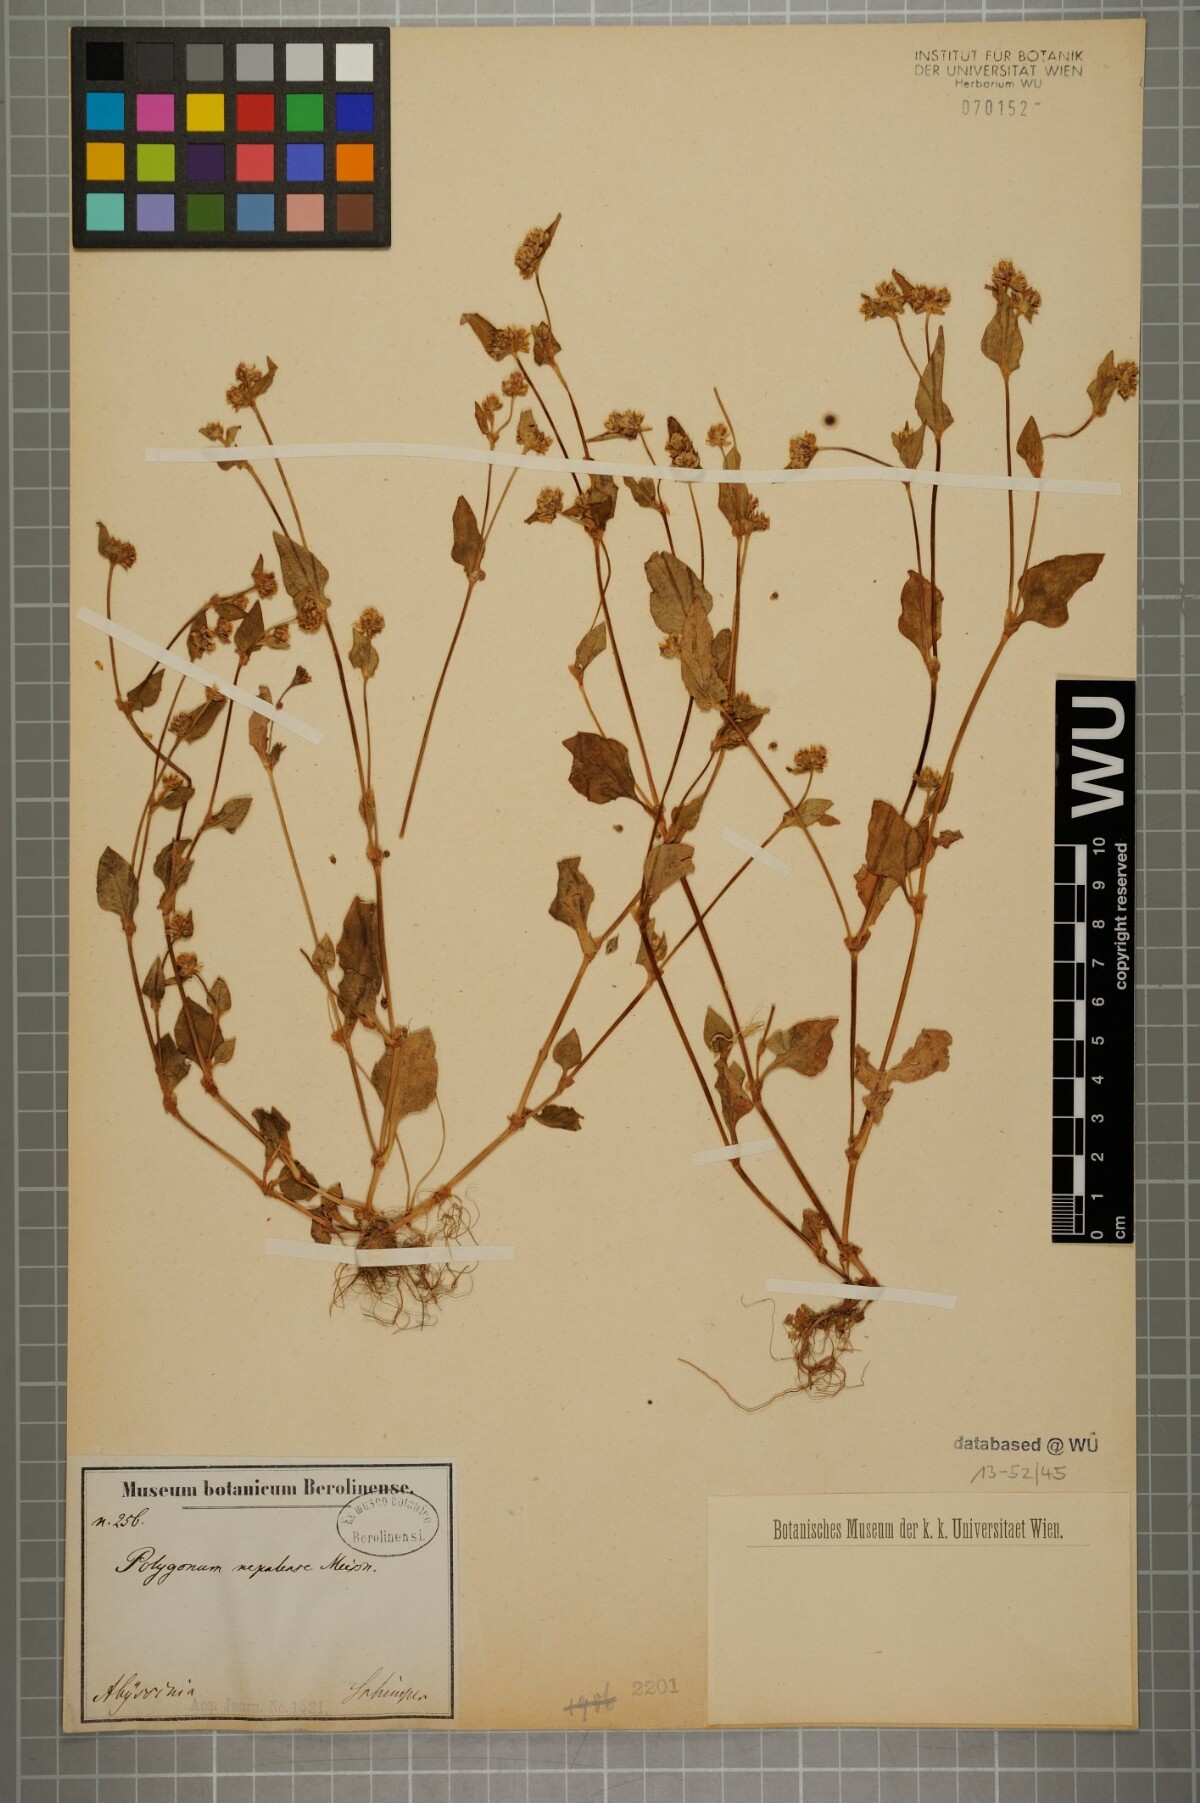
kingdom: Plantae
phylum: Tracheophyta
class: Magnoliopsida
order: Caryophyllales
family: Polygonaceae
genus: Persicaria
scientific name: Persicaria nepalensis
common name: Nepal persicaria
